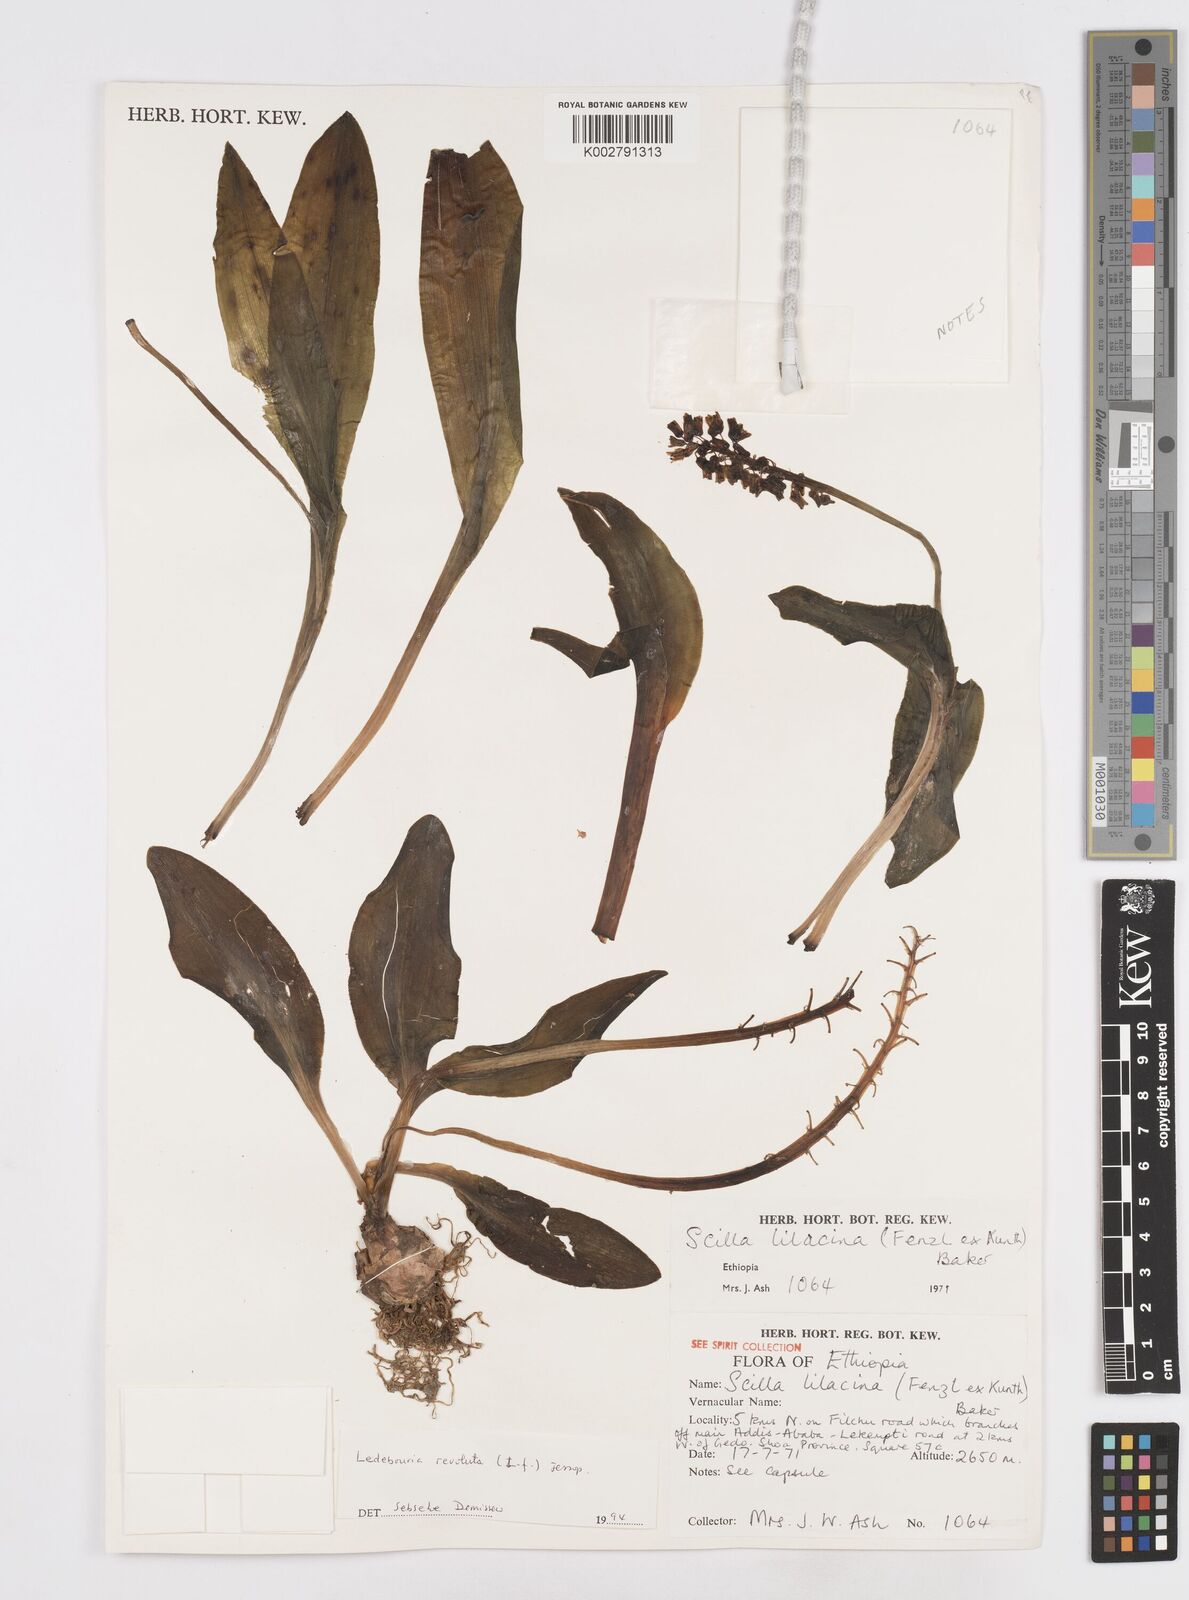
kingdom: Plantae
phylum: Tracheophyta
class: Liliopsida
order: Asparagales
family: Asparagaceae
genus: Scilla
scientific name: Scilla
